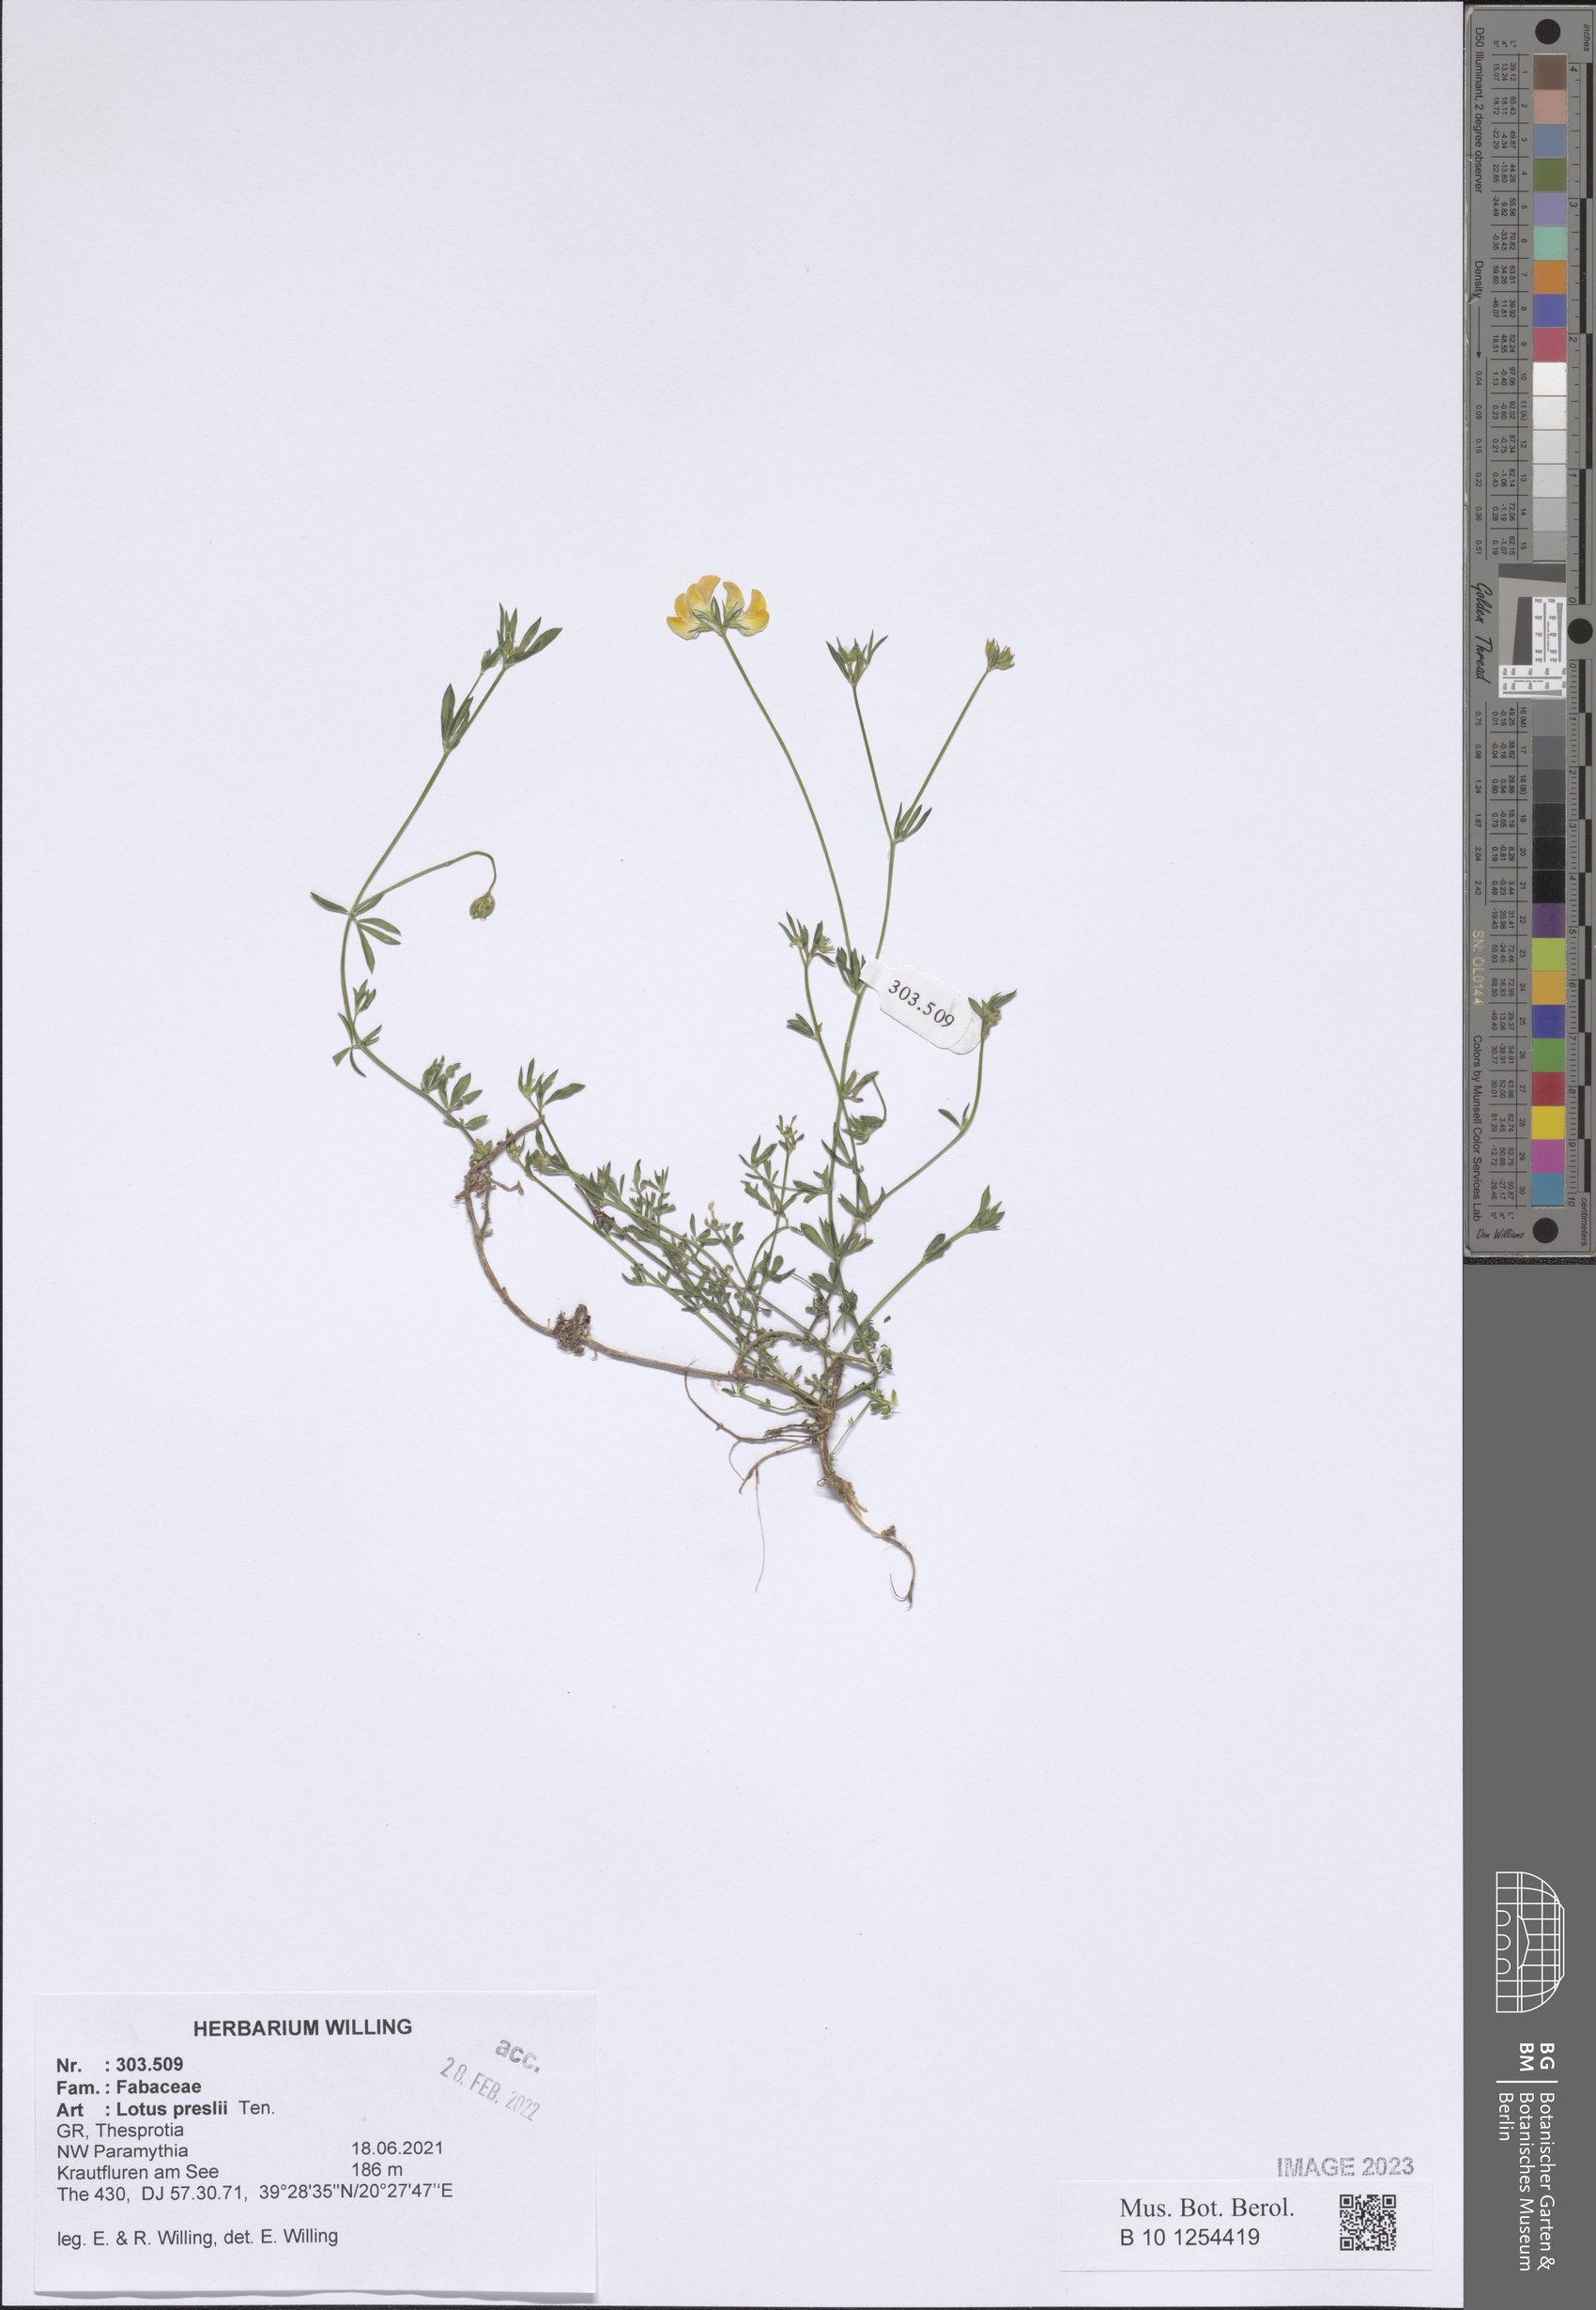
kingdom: Plantae
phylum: Tracheophyta
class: Magnoliopsida
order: Fabales
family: Fabaceae
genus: Lotus
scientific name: Lotus corniculatus
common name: Common bird's-foot-trefoil
